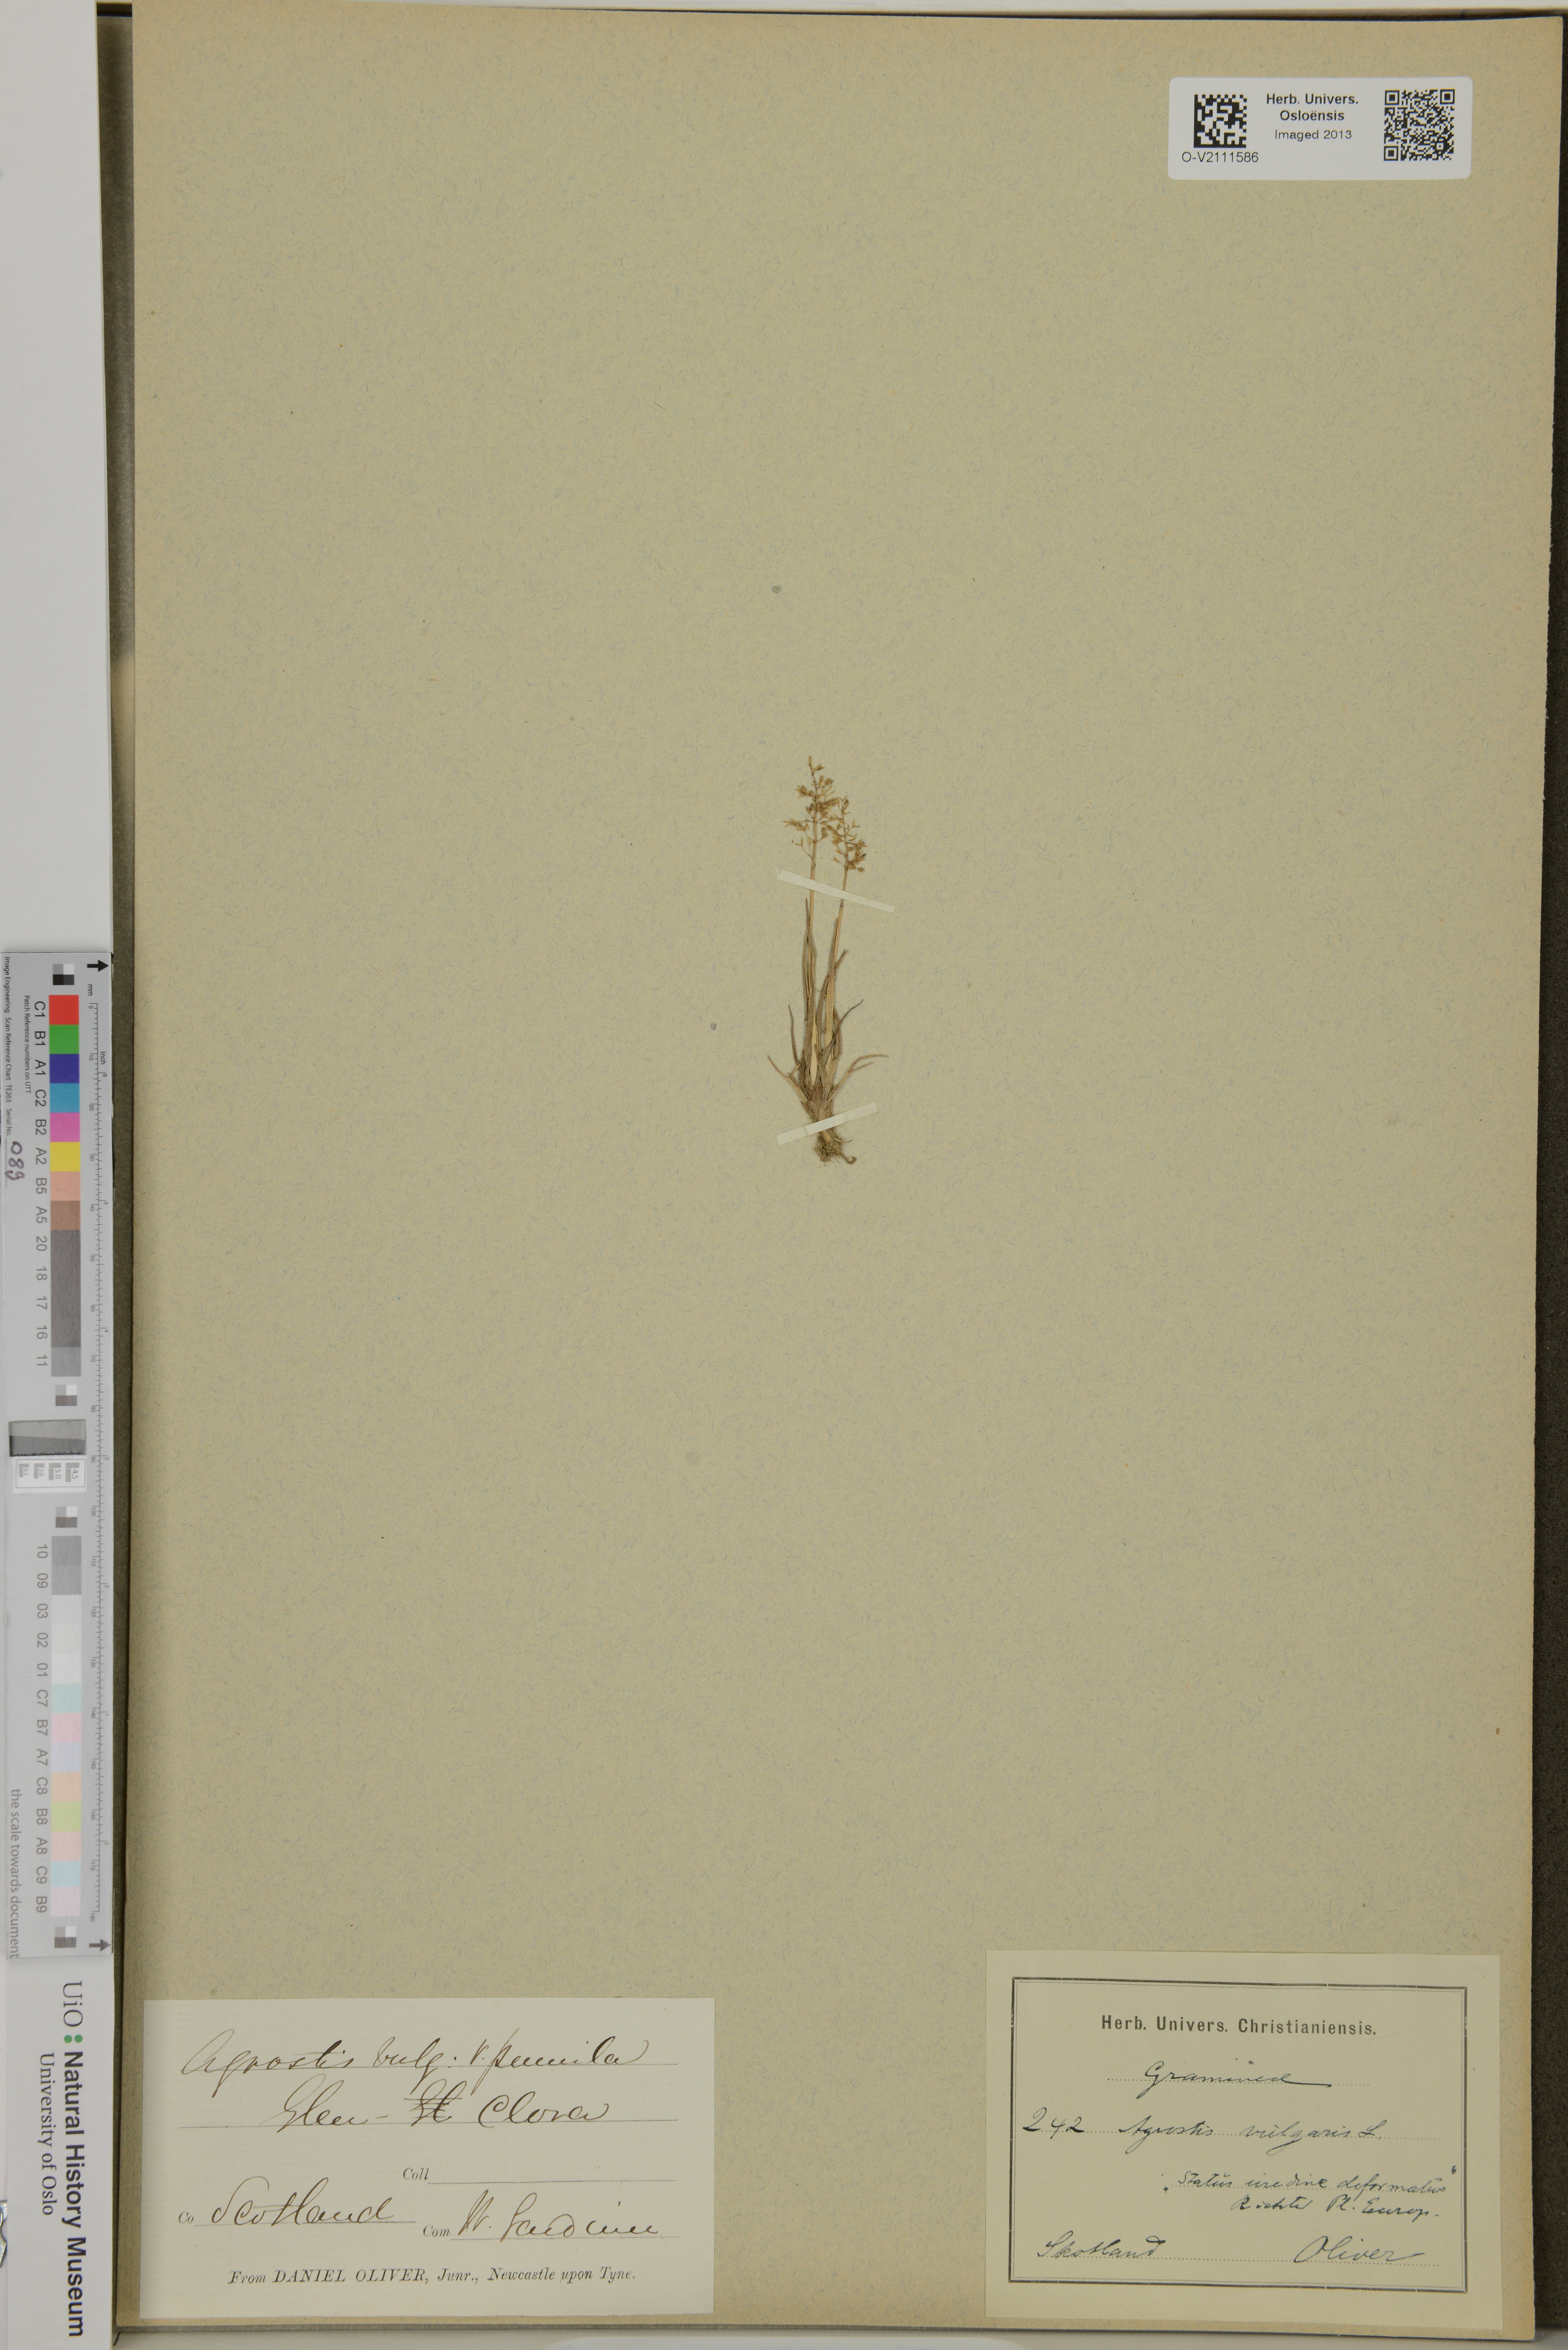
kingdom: Plantae
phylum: Tracheophyta
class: Liliopsida
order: Poales
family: Poaceae
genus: Agrostis
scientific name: Agrostis capillaris
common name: Colonial bentgrass
